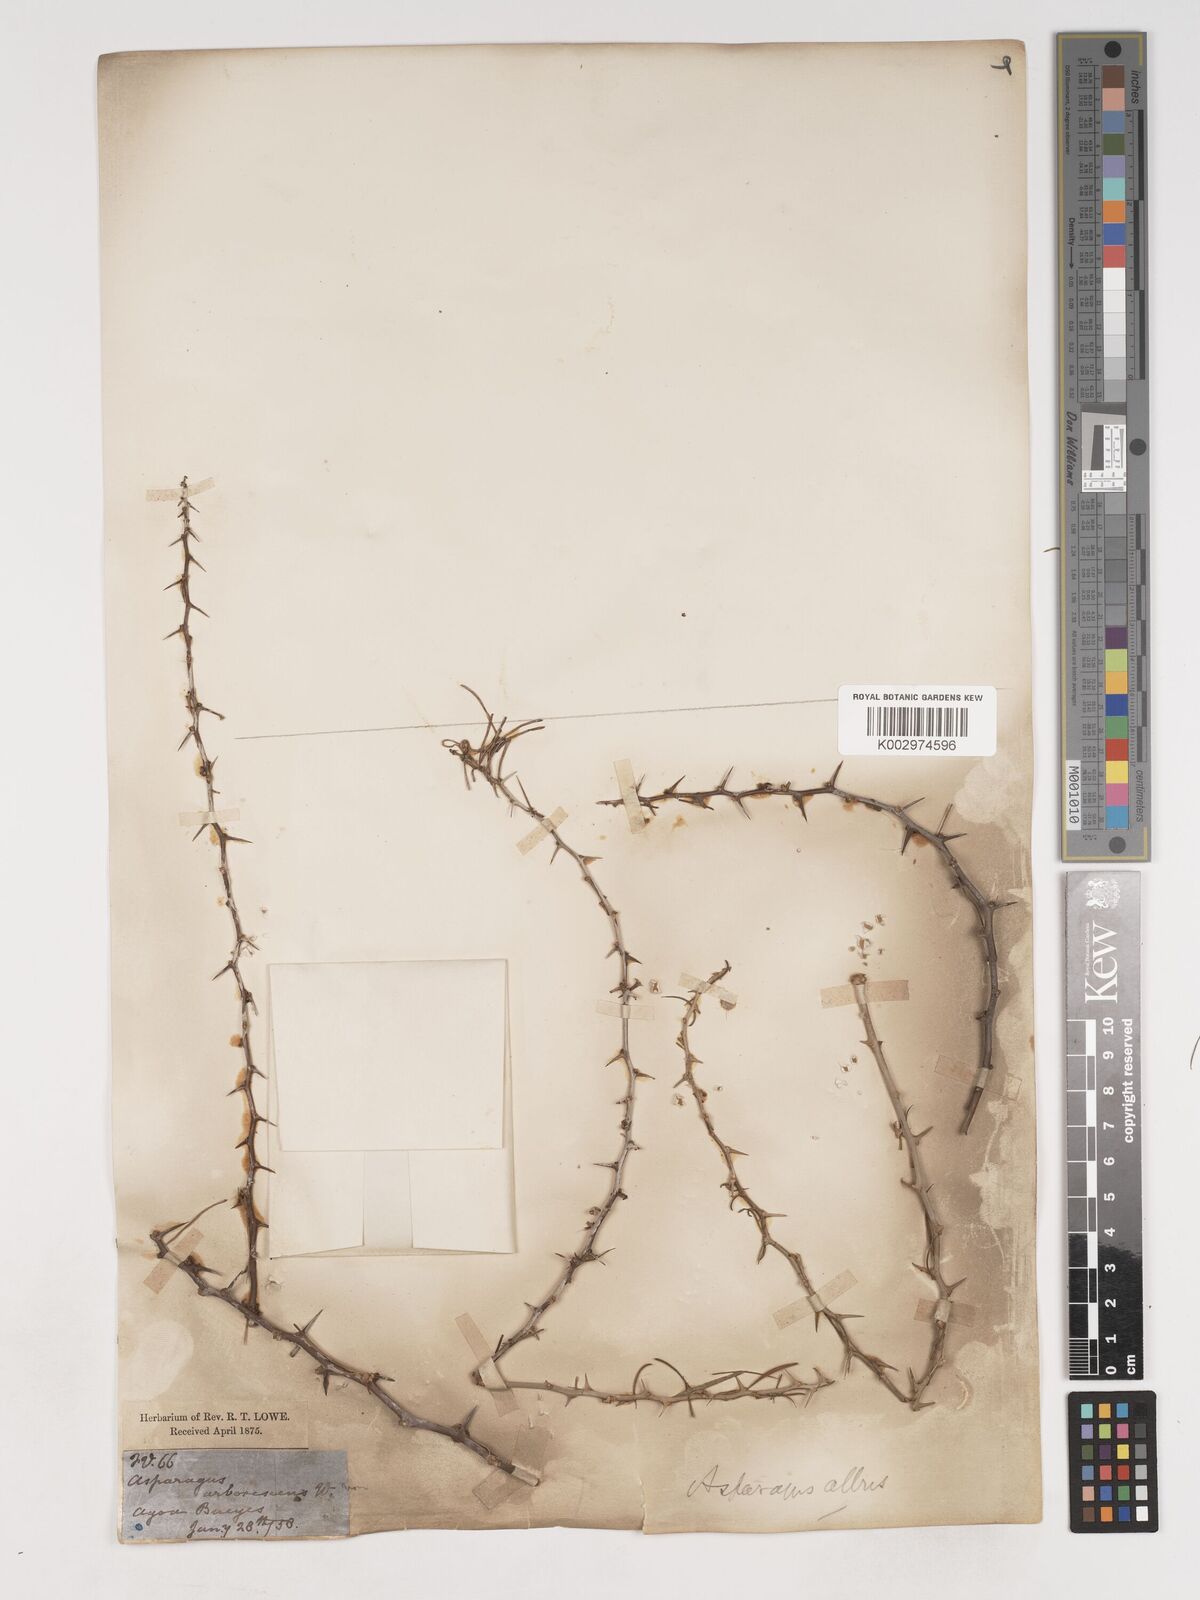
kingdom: Plantae
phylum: Tracheophyta
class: Liliopsida
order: Asparagales
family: Asparagaceae
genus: Asparagus
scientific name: Asparagus albus
